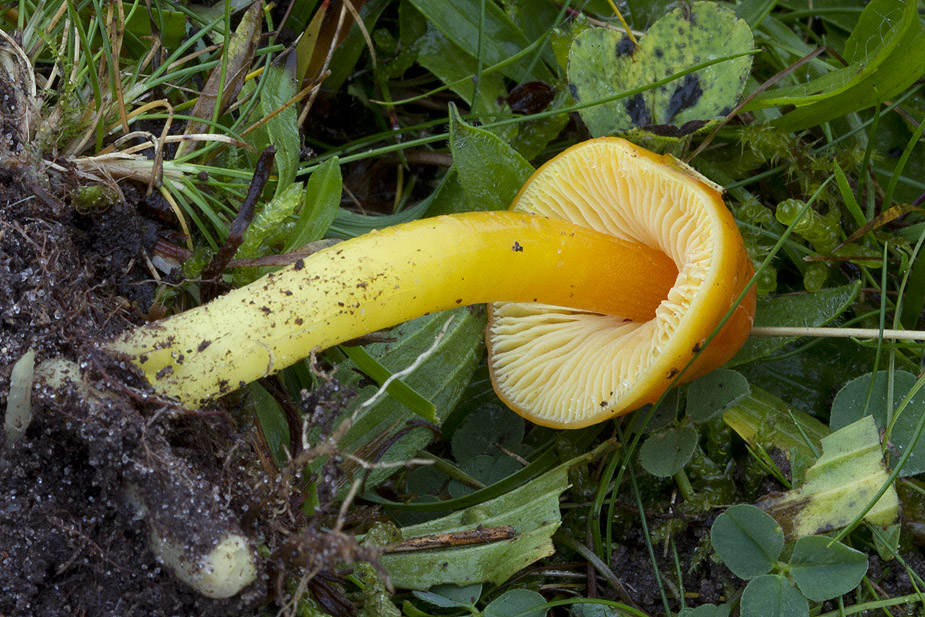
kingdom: Fungi
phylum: Basidiomycota
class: Agaricomycetes
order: Agaricales
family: Hygrophoraceae
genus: Hygrocybe
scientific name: Hygrocybe aurantiosplendens
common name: orangegylden vokshat
